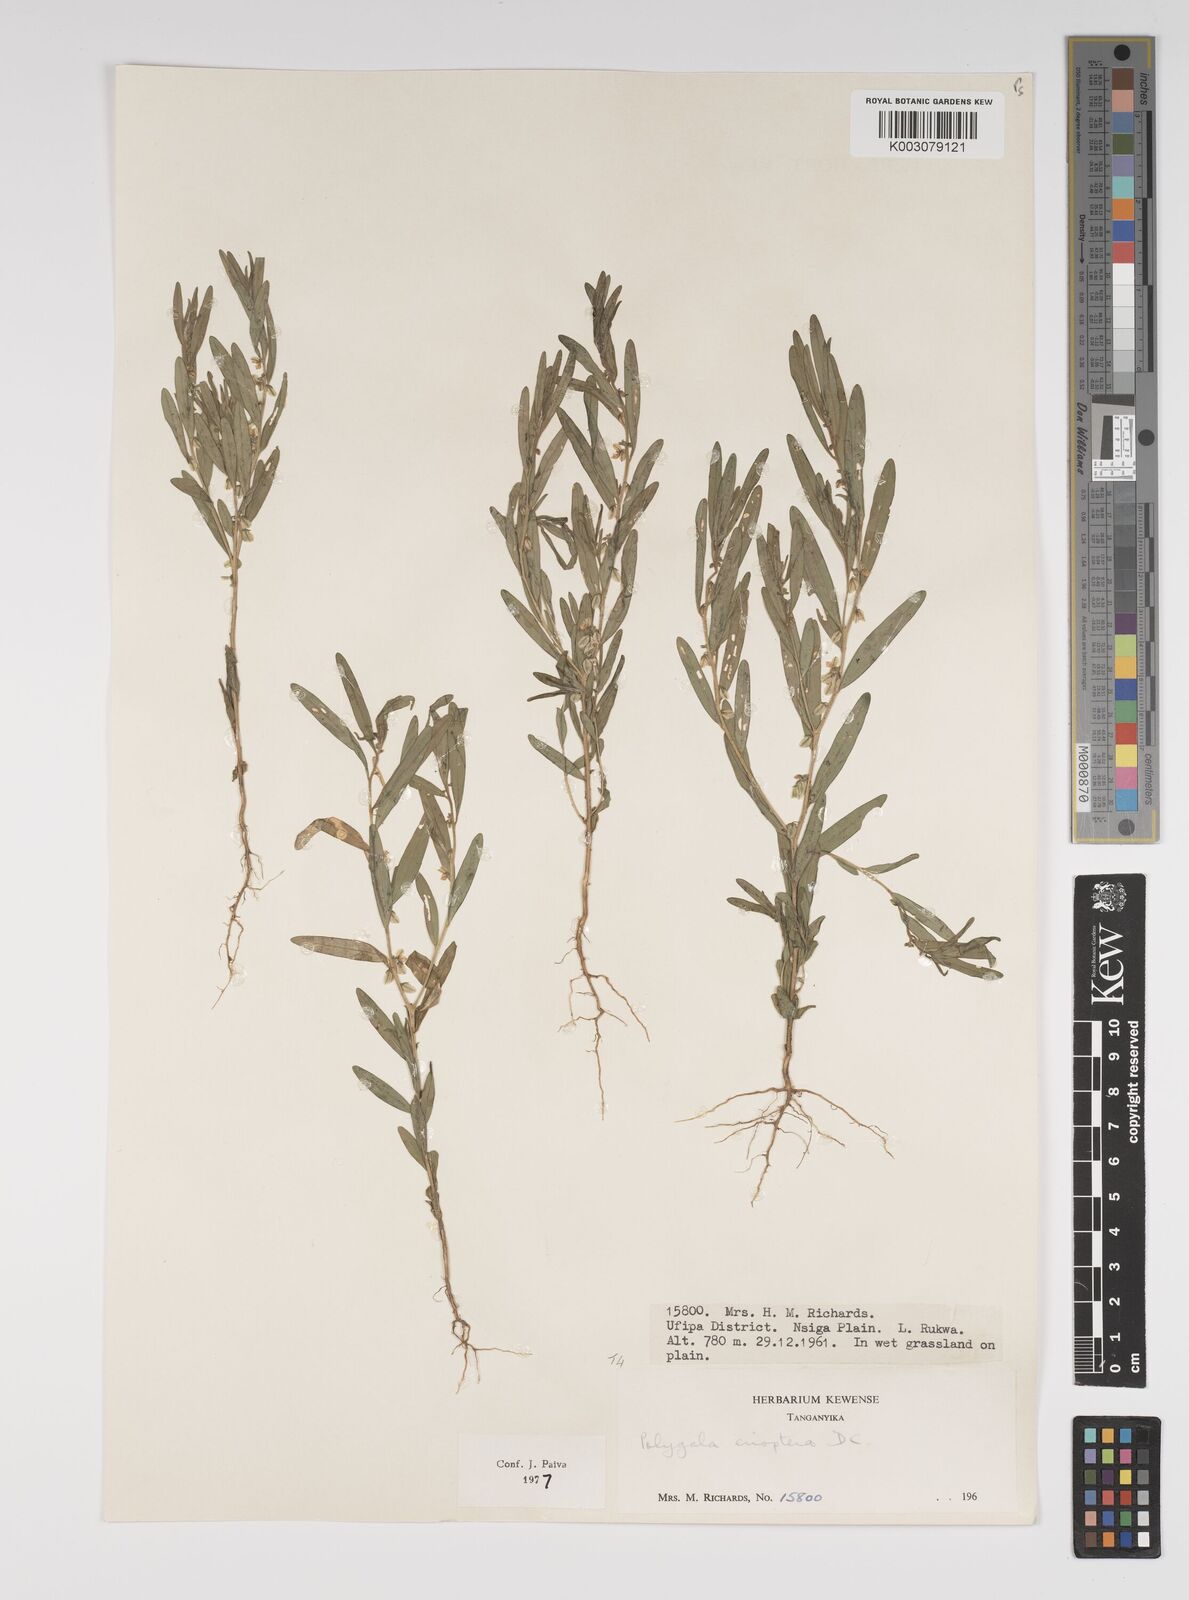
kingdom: Plantae
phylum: Tracheophyta
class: Magnoliopsida
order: Fabales
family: Polygalaceae
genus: Polygala
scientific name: Polygala erioptera
